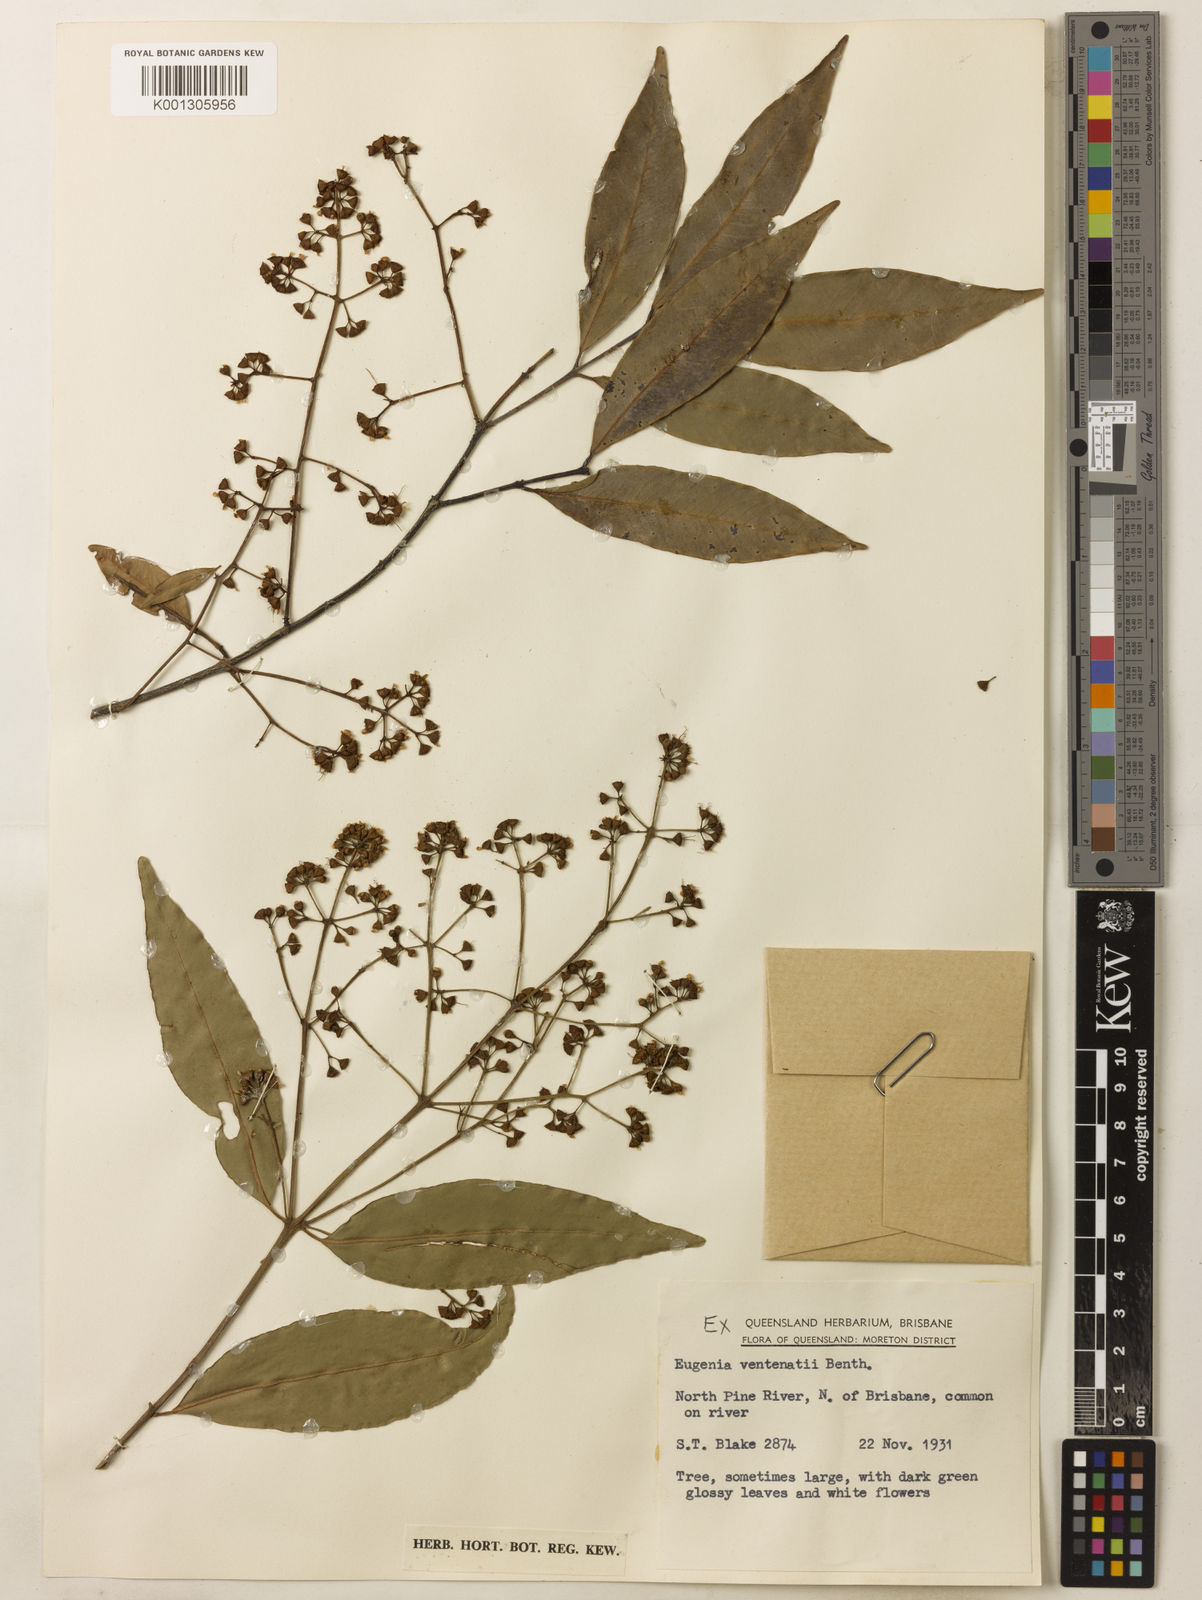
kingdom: Plantae
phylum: Tracheophyta
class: Magnoliopsida
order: Myrtales
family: Myrtaceae
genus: Syzygium
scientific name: Syzygium floribundum
